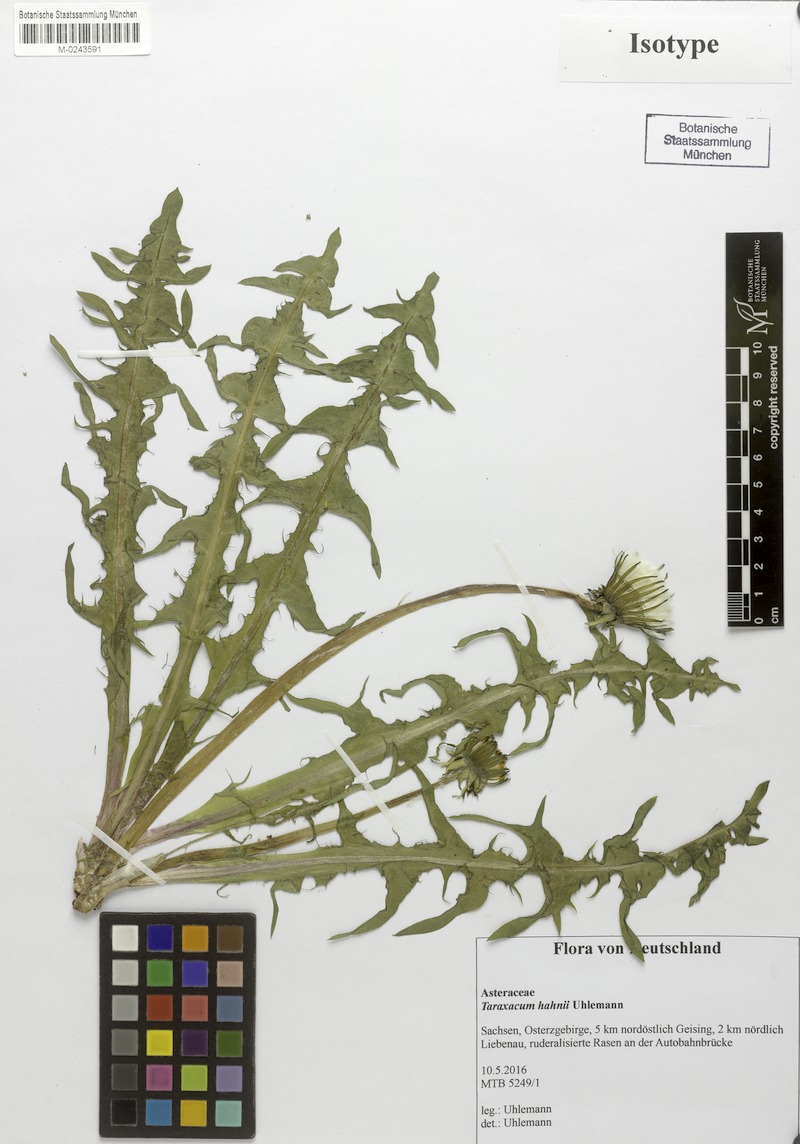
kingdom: Plantae
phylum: Tracheophyta
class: Magnoliopsida
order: Asterales
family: Asteraceae
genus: Taraxacum
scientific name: Taraxacum hahnii
